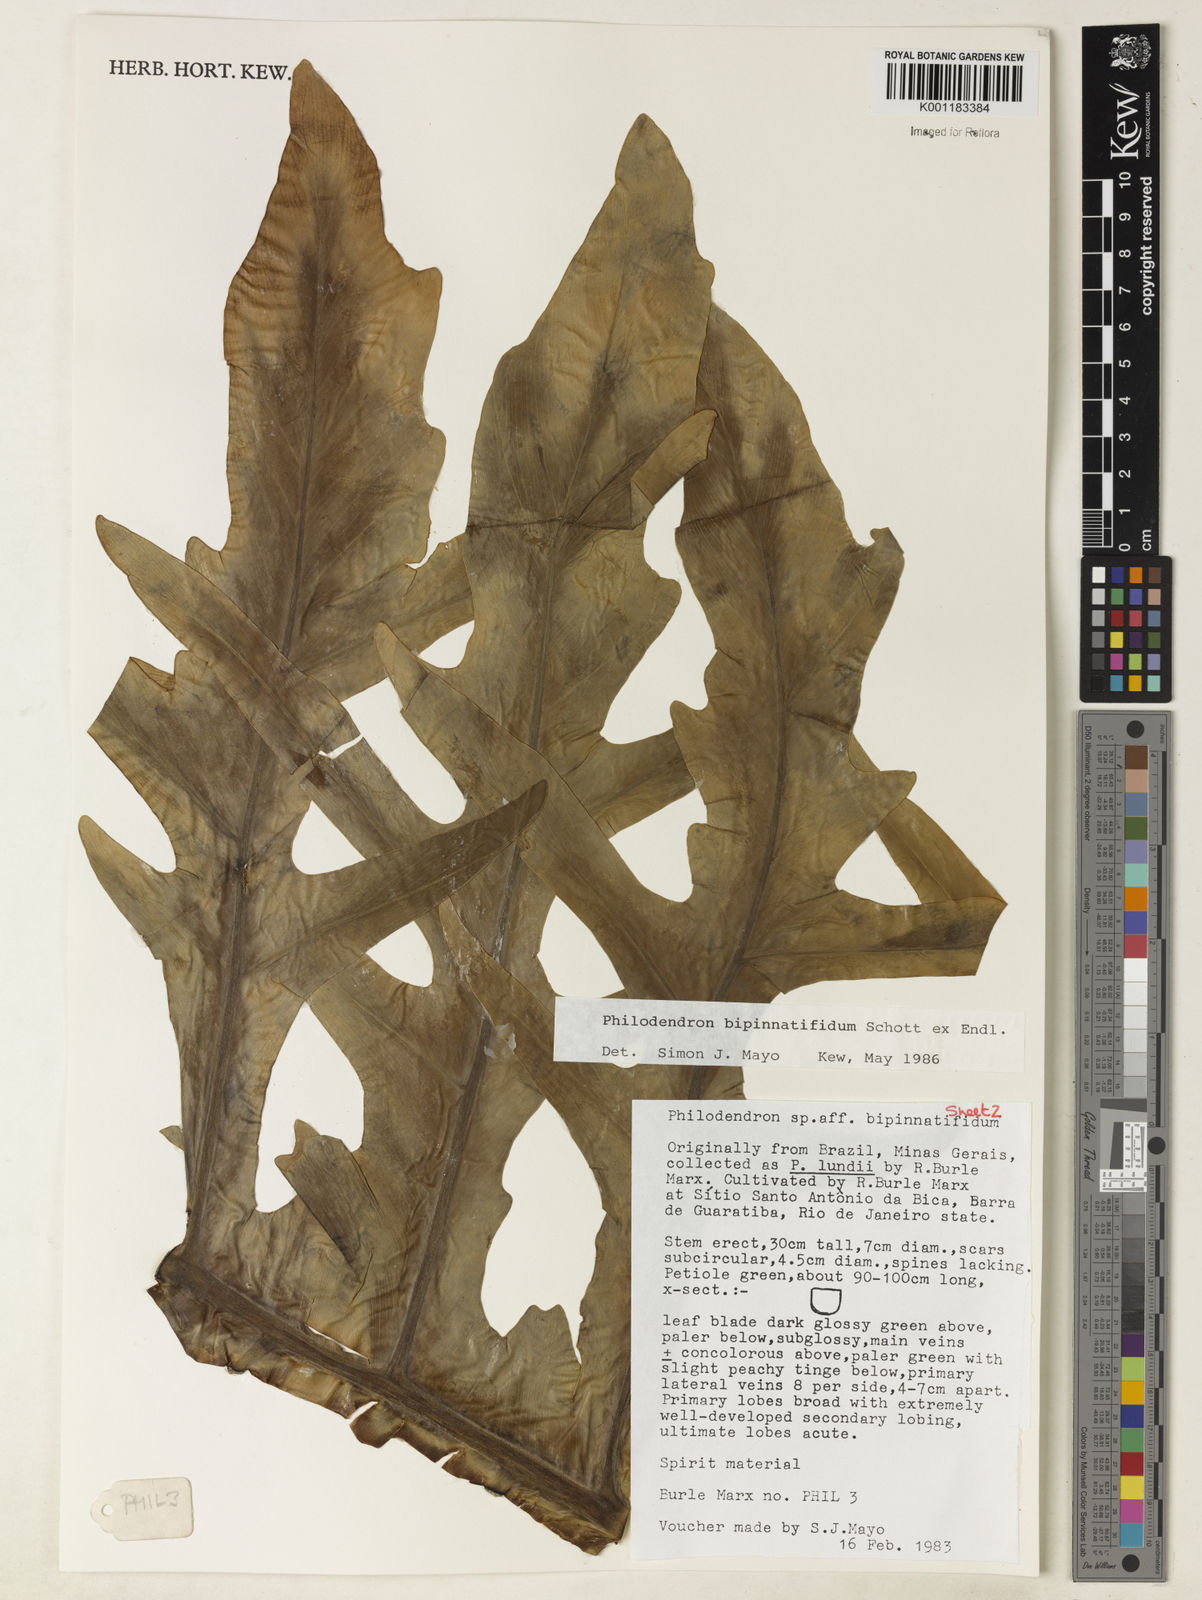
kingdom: Plantae
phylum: Tracheophyta
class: Liliopsida
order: Alismatales
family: Araceae
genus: Thaumatophyllum
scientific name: Thaumatophyllum bipinnatifidum
